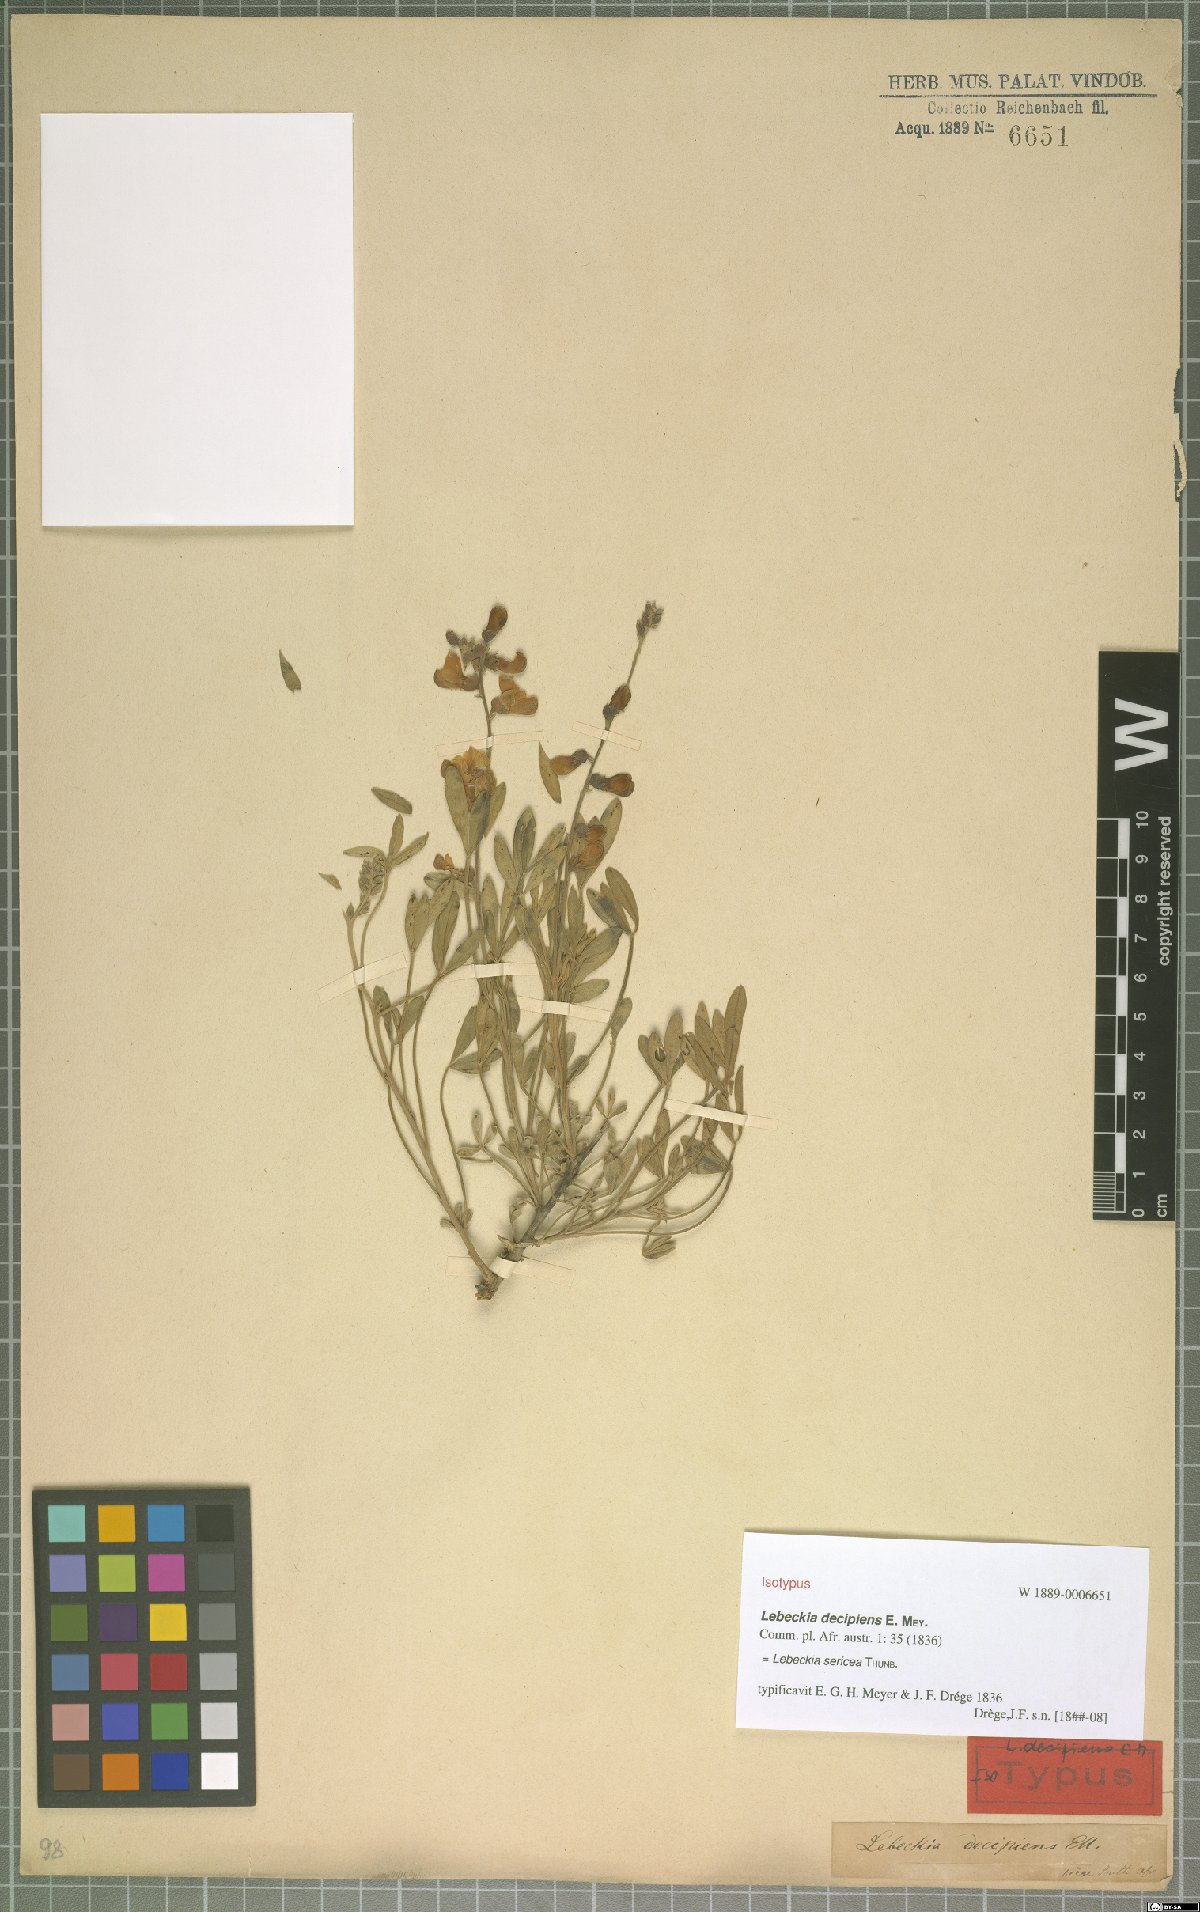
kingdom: Plantae
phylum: Tracheophyta
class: Magnoliopsida
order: Fabales
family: Fabaceae
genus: Calobota
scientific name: Calobota sericea
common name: Silver-pea
